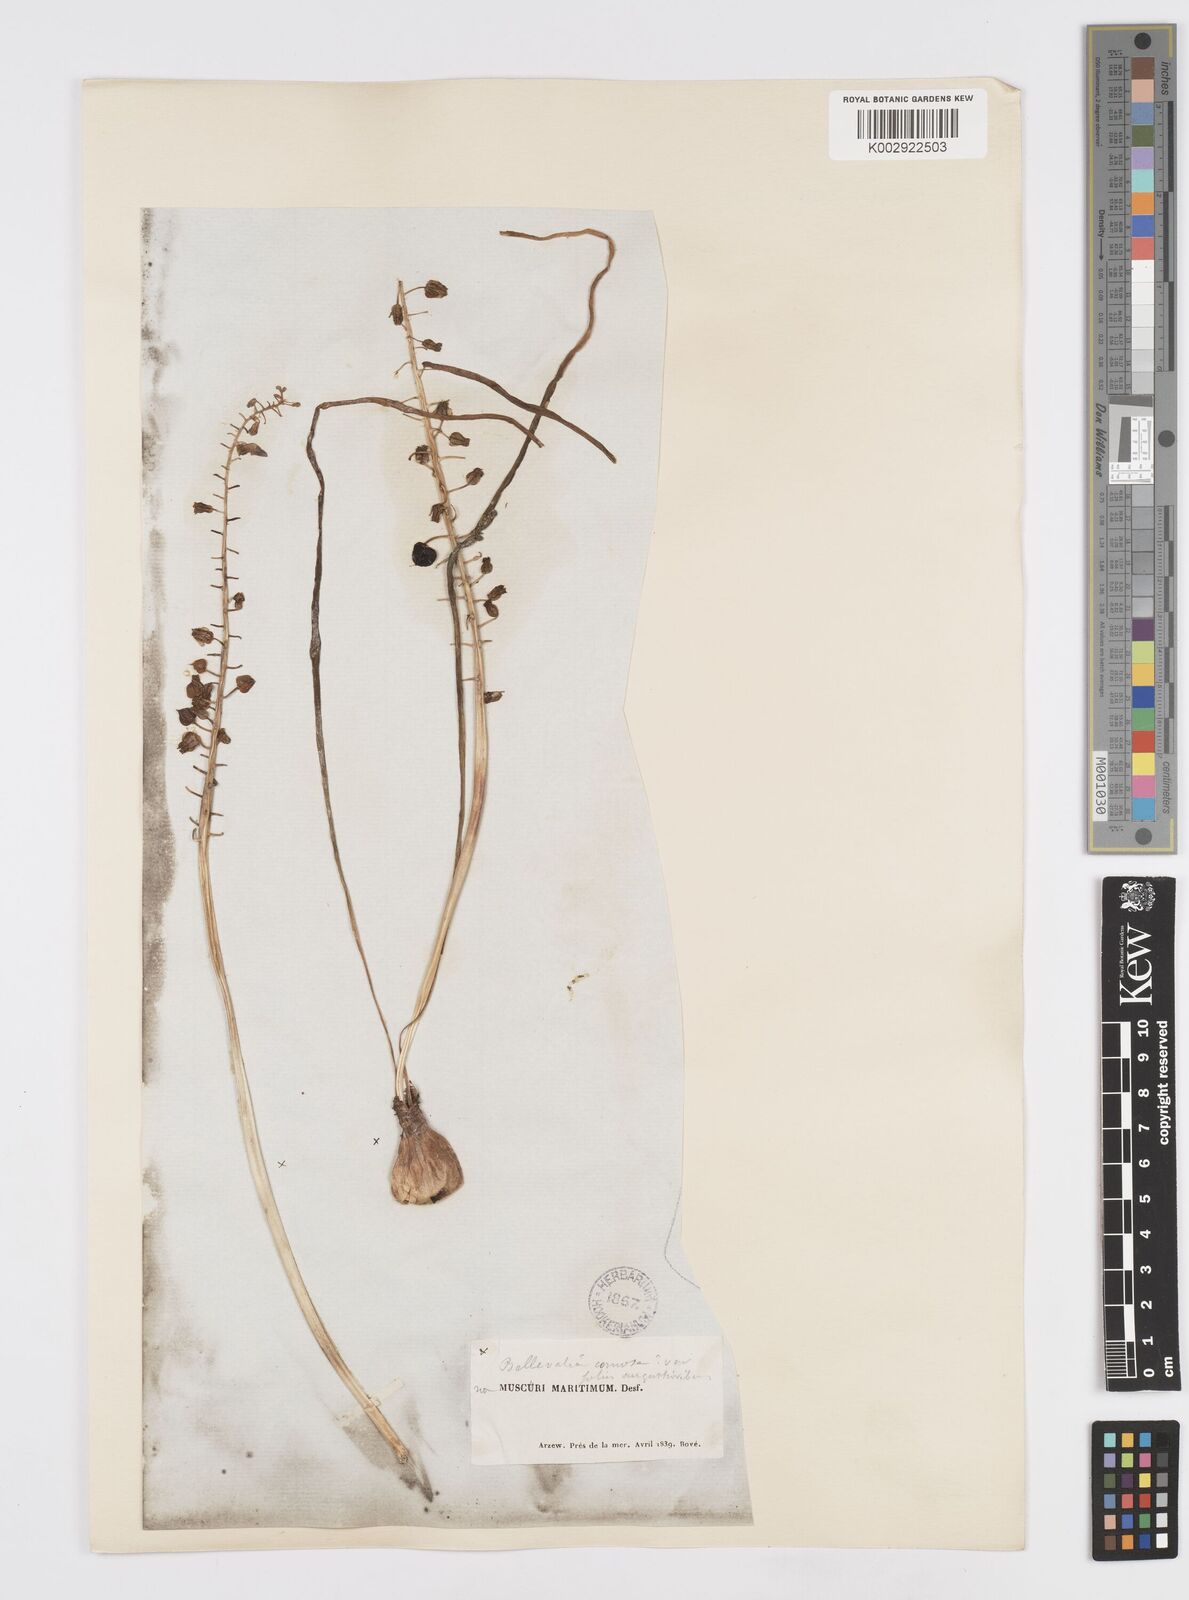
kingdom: Plantae
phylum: Tracheophyta
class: Liliopsida
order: Asparagales
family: Asparagaceae
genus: Muscari
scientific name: Muscari comosum
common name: Tassel hyacinth
